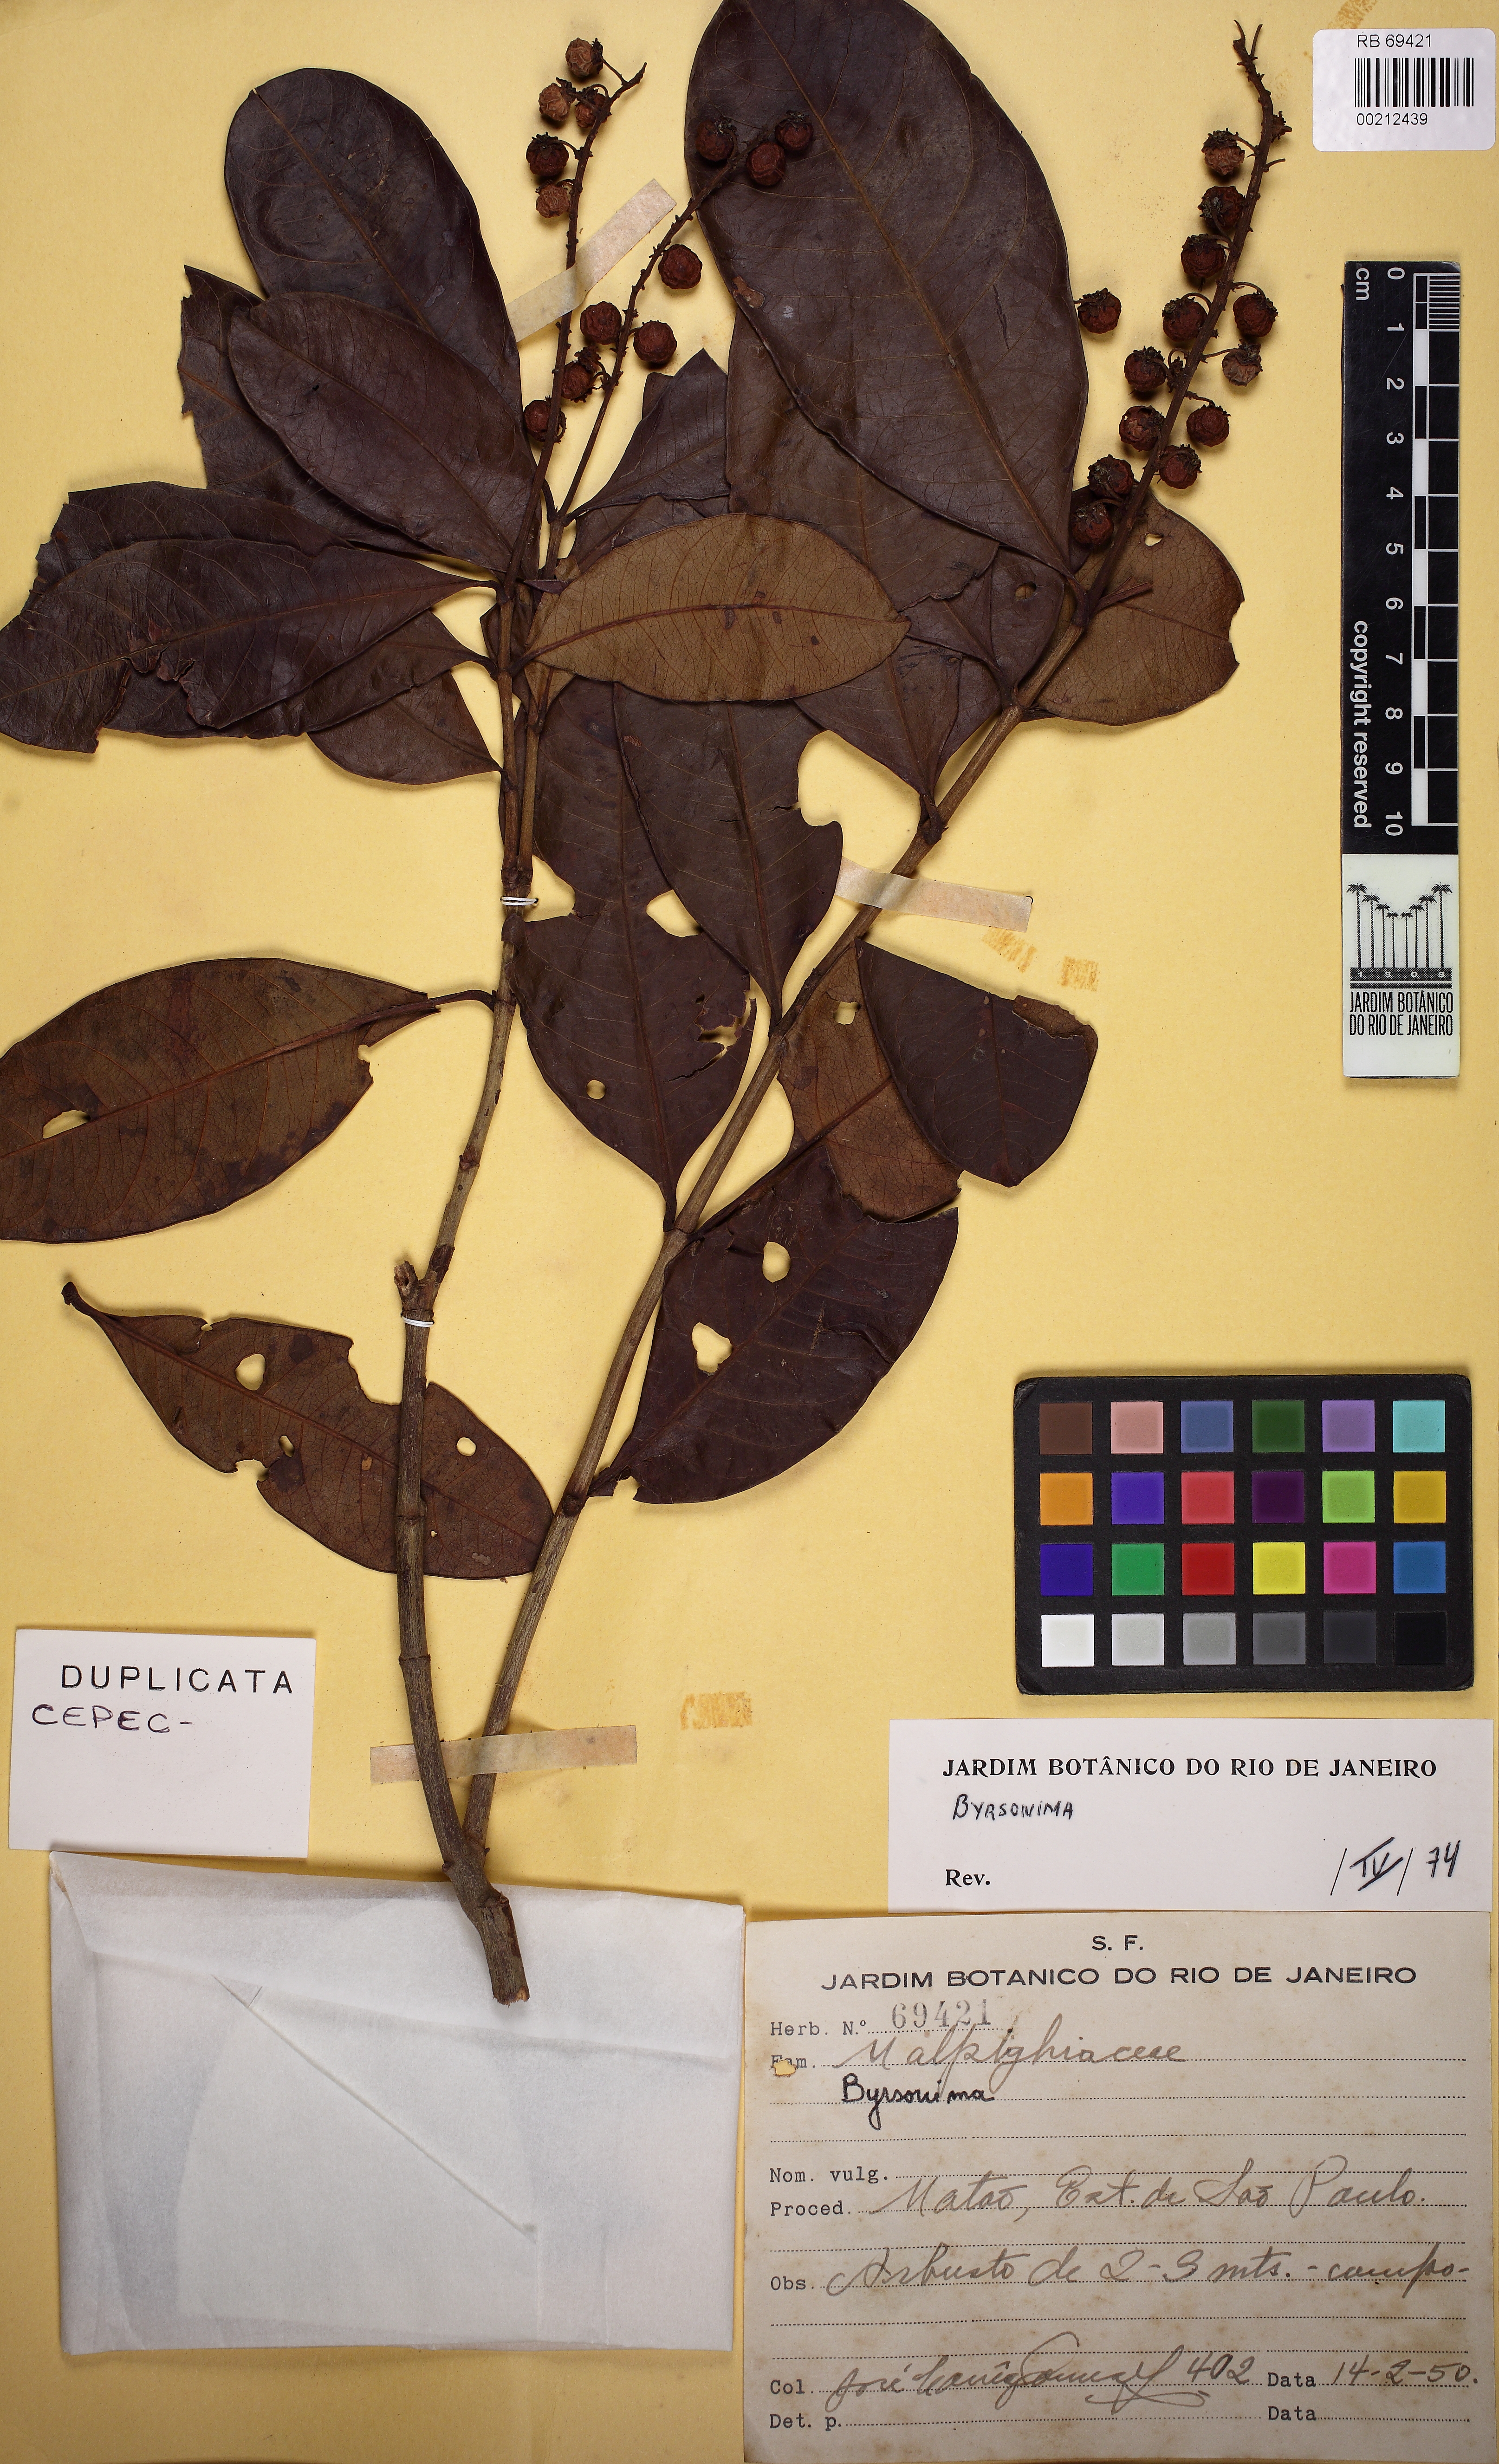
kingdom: Plantae
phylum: Tracheophyta
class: Magnoliopsida
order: Malpighiales
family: Malpighiaceae
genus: Byrsonima
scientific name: Byrsonima
